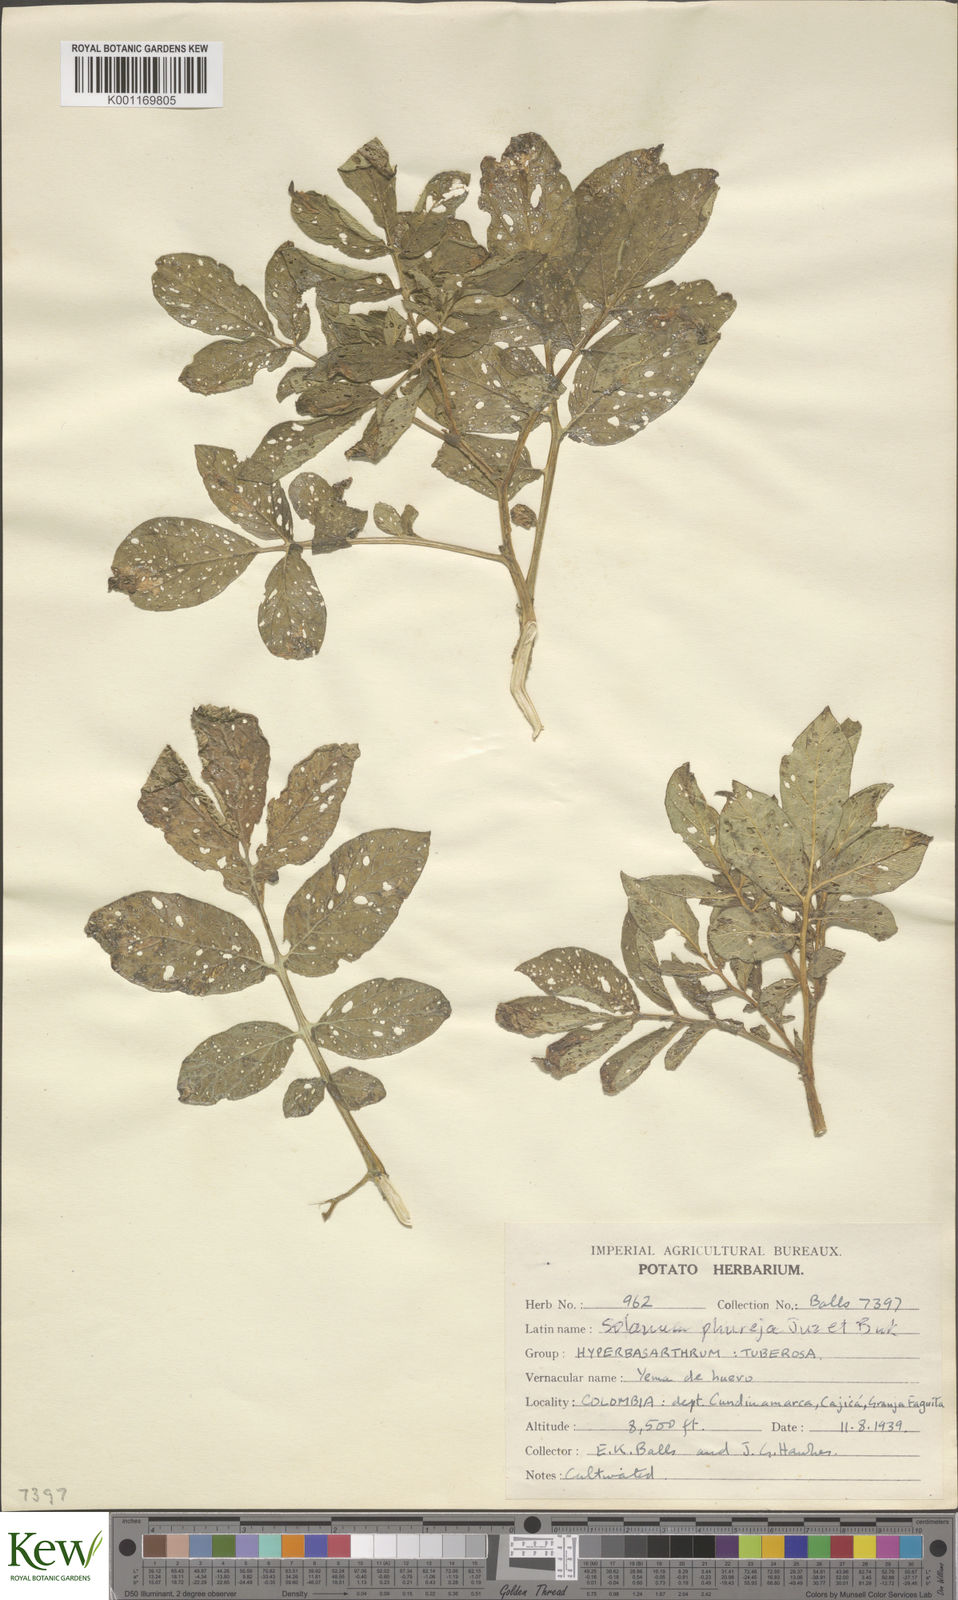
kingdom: Plantae
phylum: Tracheophyta
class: Magnoliopsida
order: Solanales
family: Solanaceae
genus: Solanum
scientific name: Solanum tuberosum
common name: Potato
